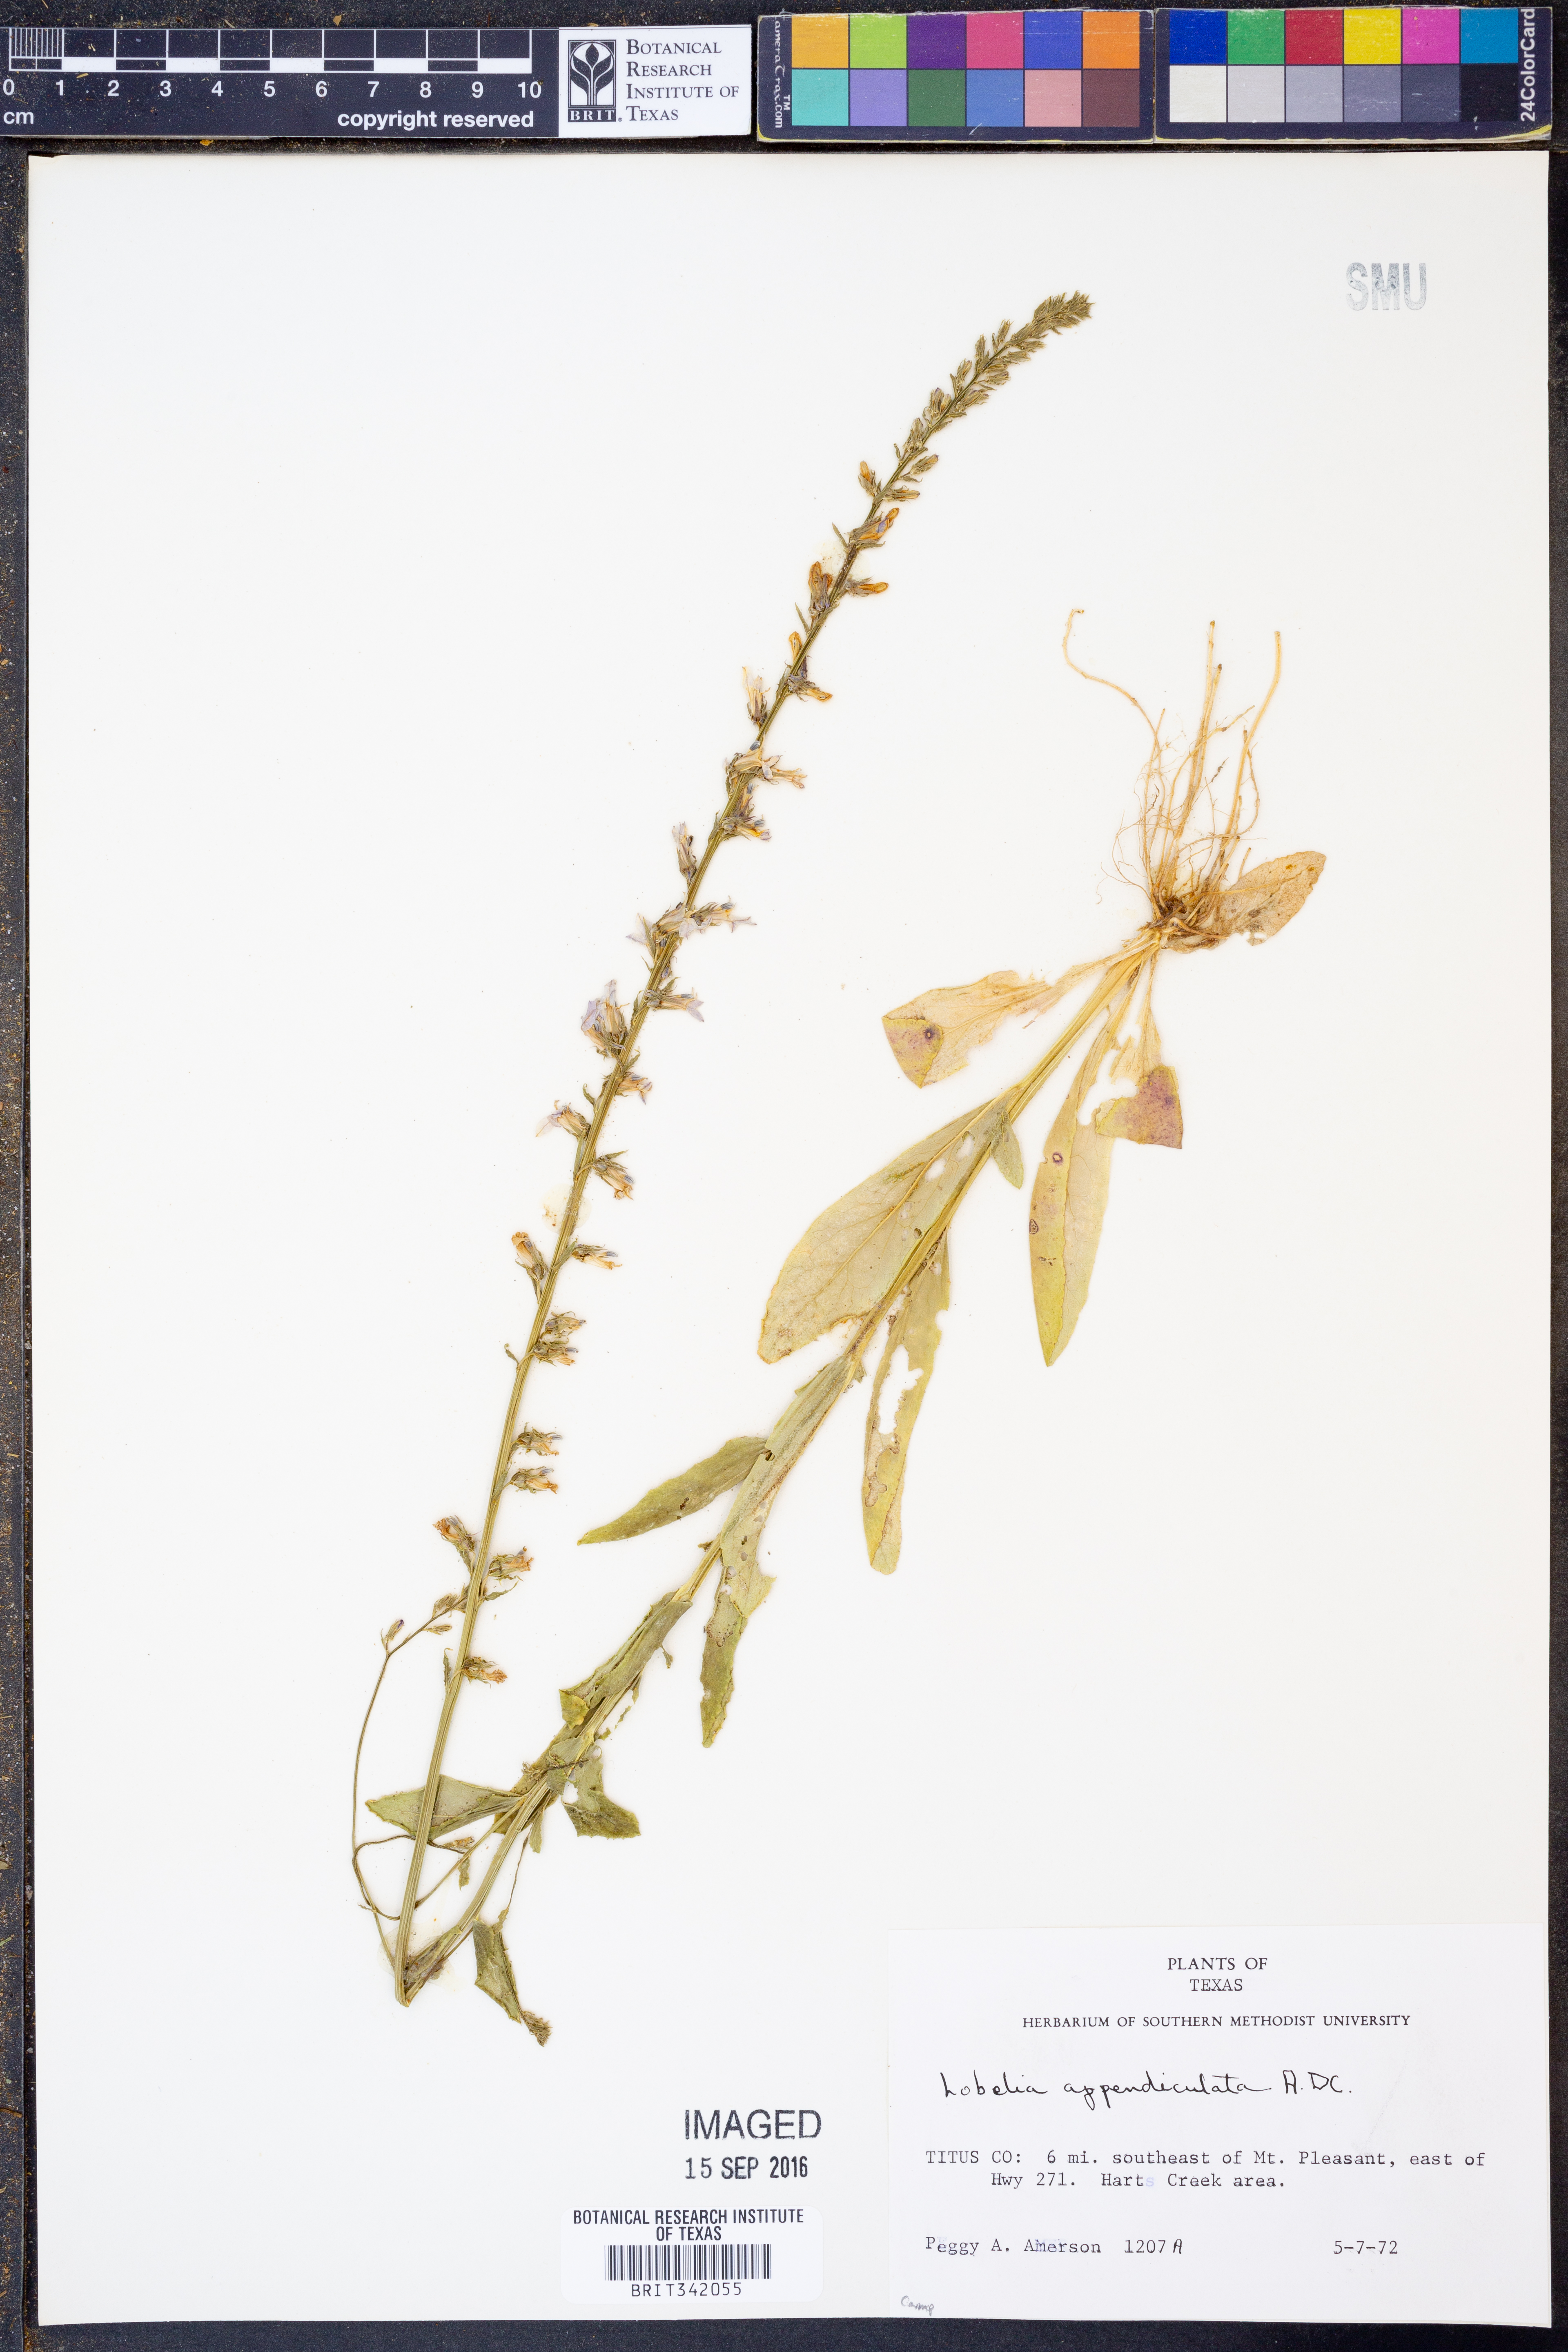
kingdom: Plantae
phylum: Tracheophyta
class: Magnoliopsida
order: Asterales
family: Campanulaceae
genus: Lobelia
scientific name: Lobelia appendiculata
